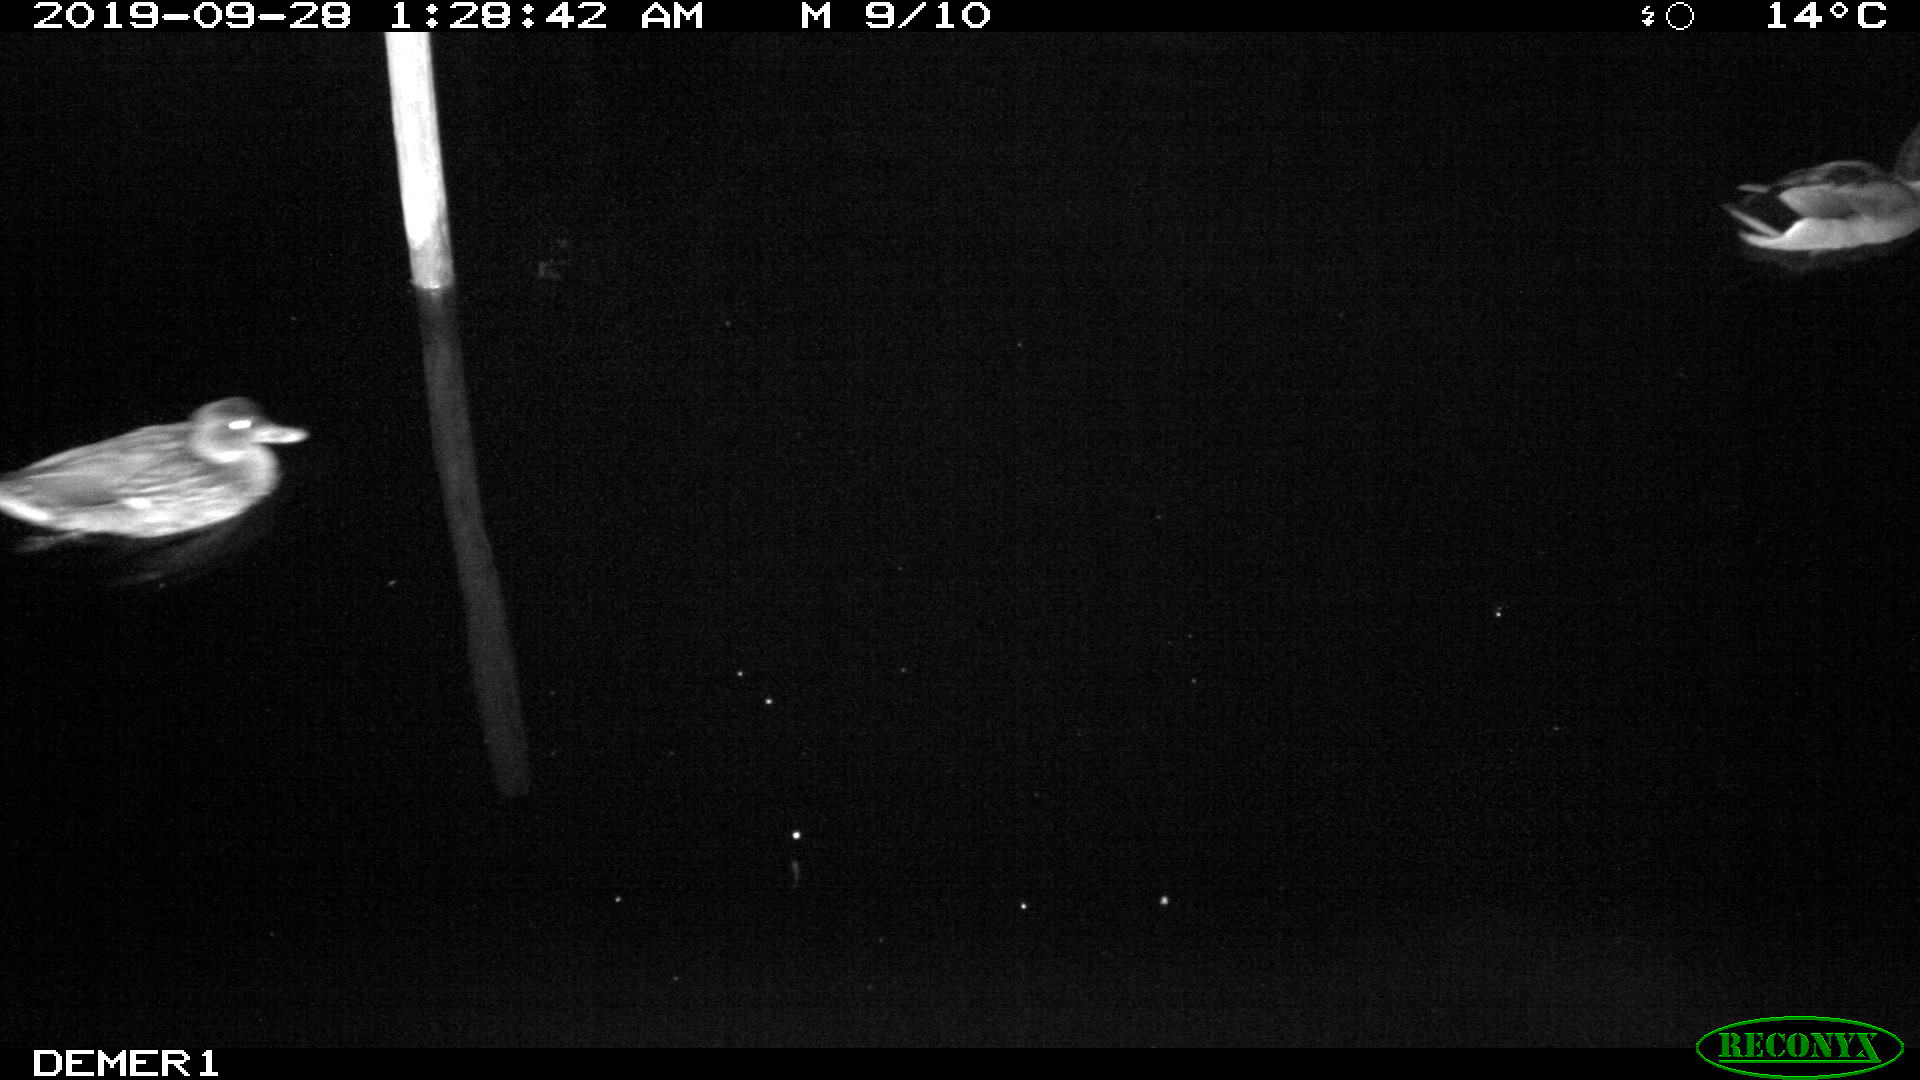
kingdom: Animalia
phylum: Chordata
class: Aves
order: Anseriformes
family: Anatidae
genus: Anas
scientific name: Anas platyrhynchos
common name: Mallard
